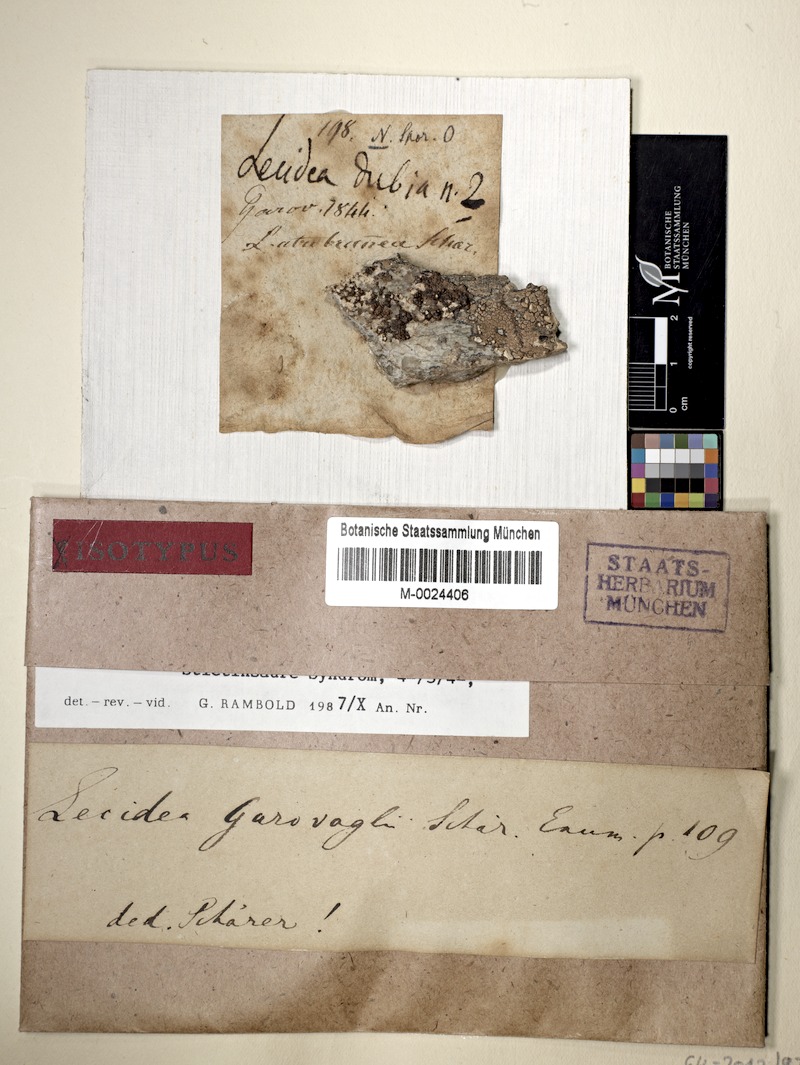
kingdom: Fungi
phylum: Ascomycota
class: Lecanoromycetes
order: Lecanorales
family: Lecanoraceae
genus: Miriquidica
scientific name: Miriquidica garovaglii
